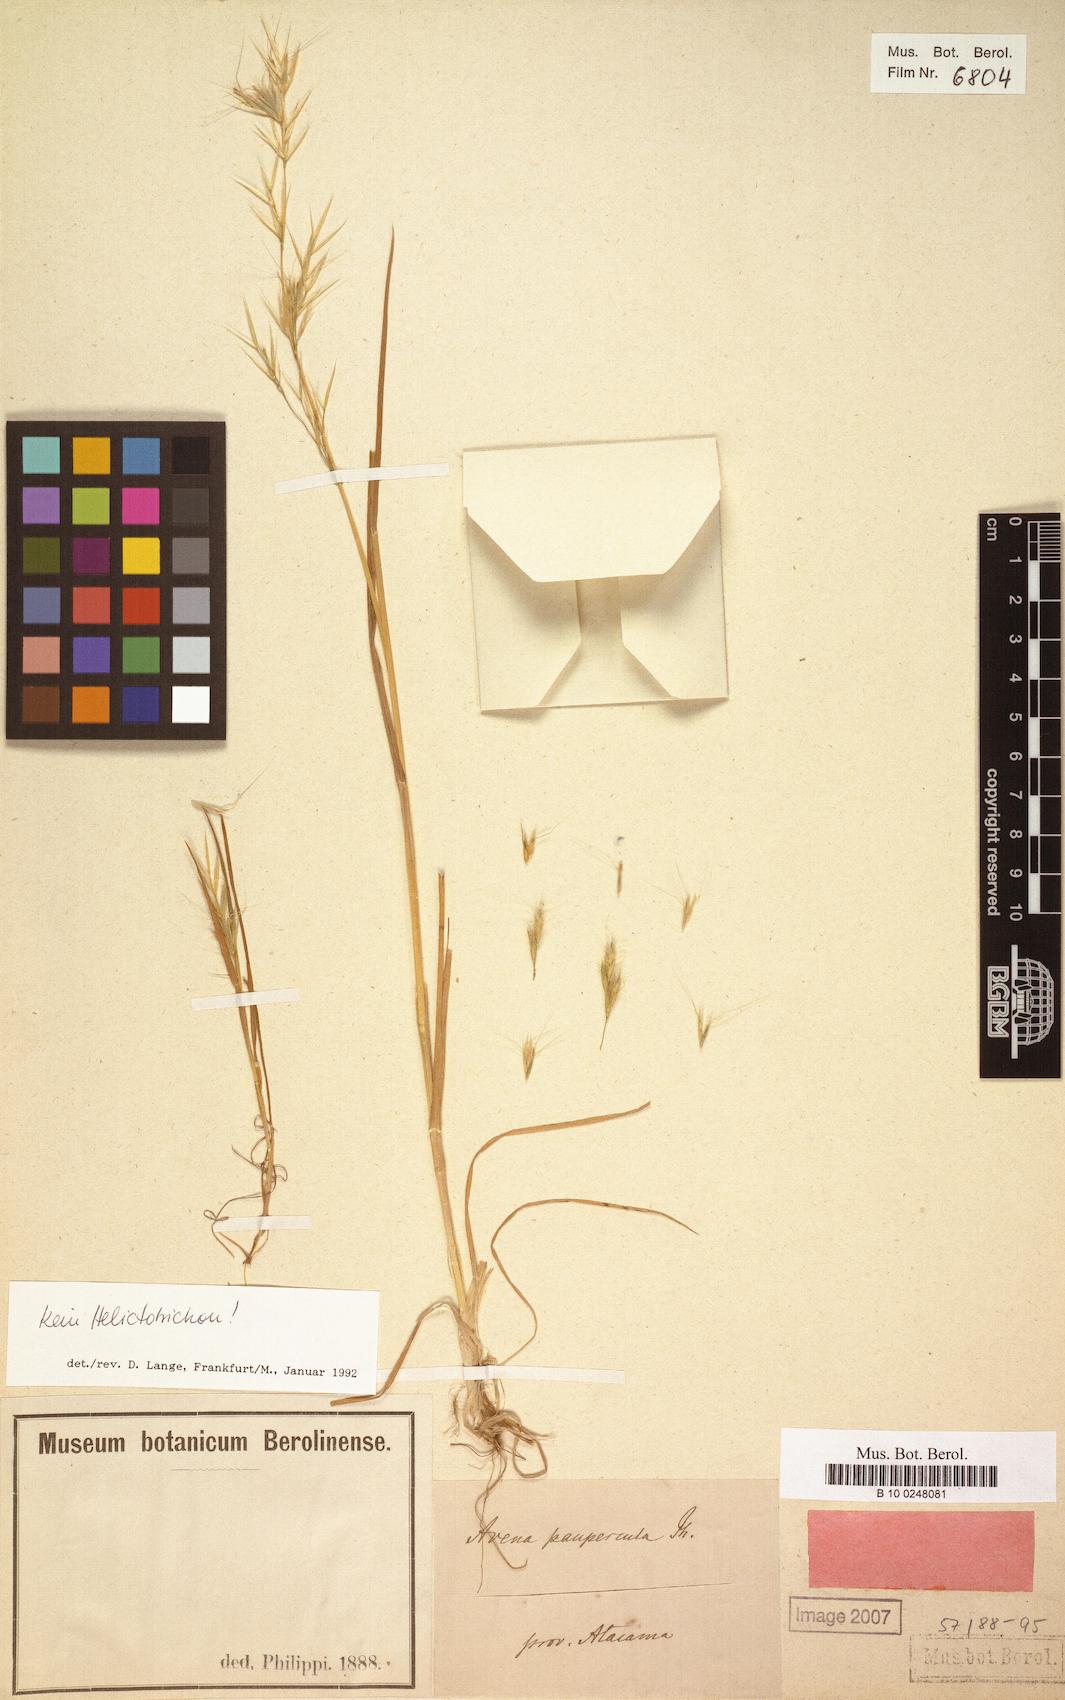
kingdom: Plantae
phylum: Tracheophyta
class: Liliopsida
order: Poales
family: Poaceae
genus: Bromus
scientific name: Bromus berteroanus
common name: Chilean chess
